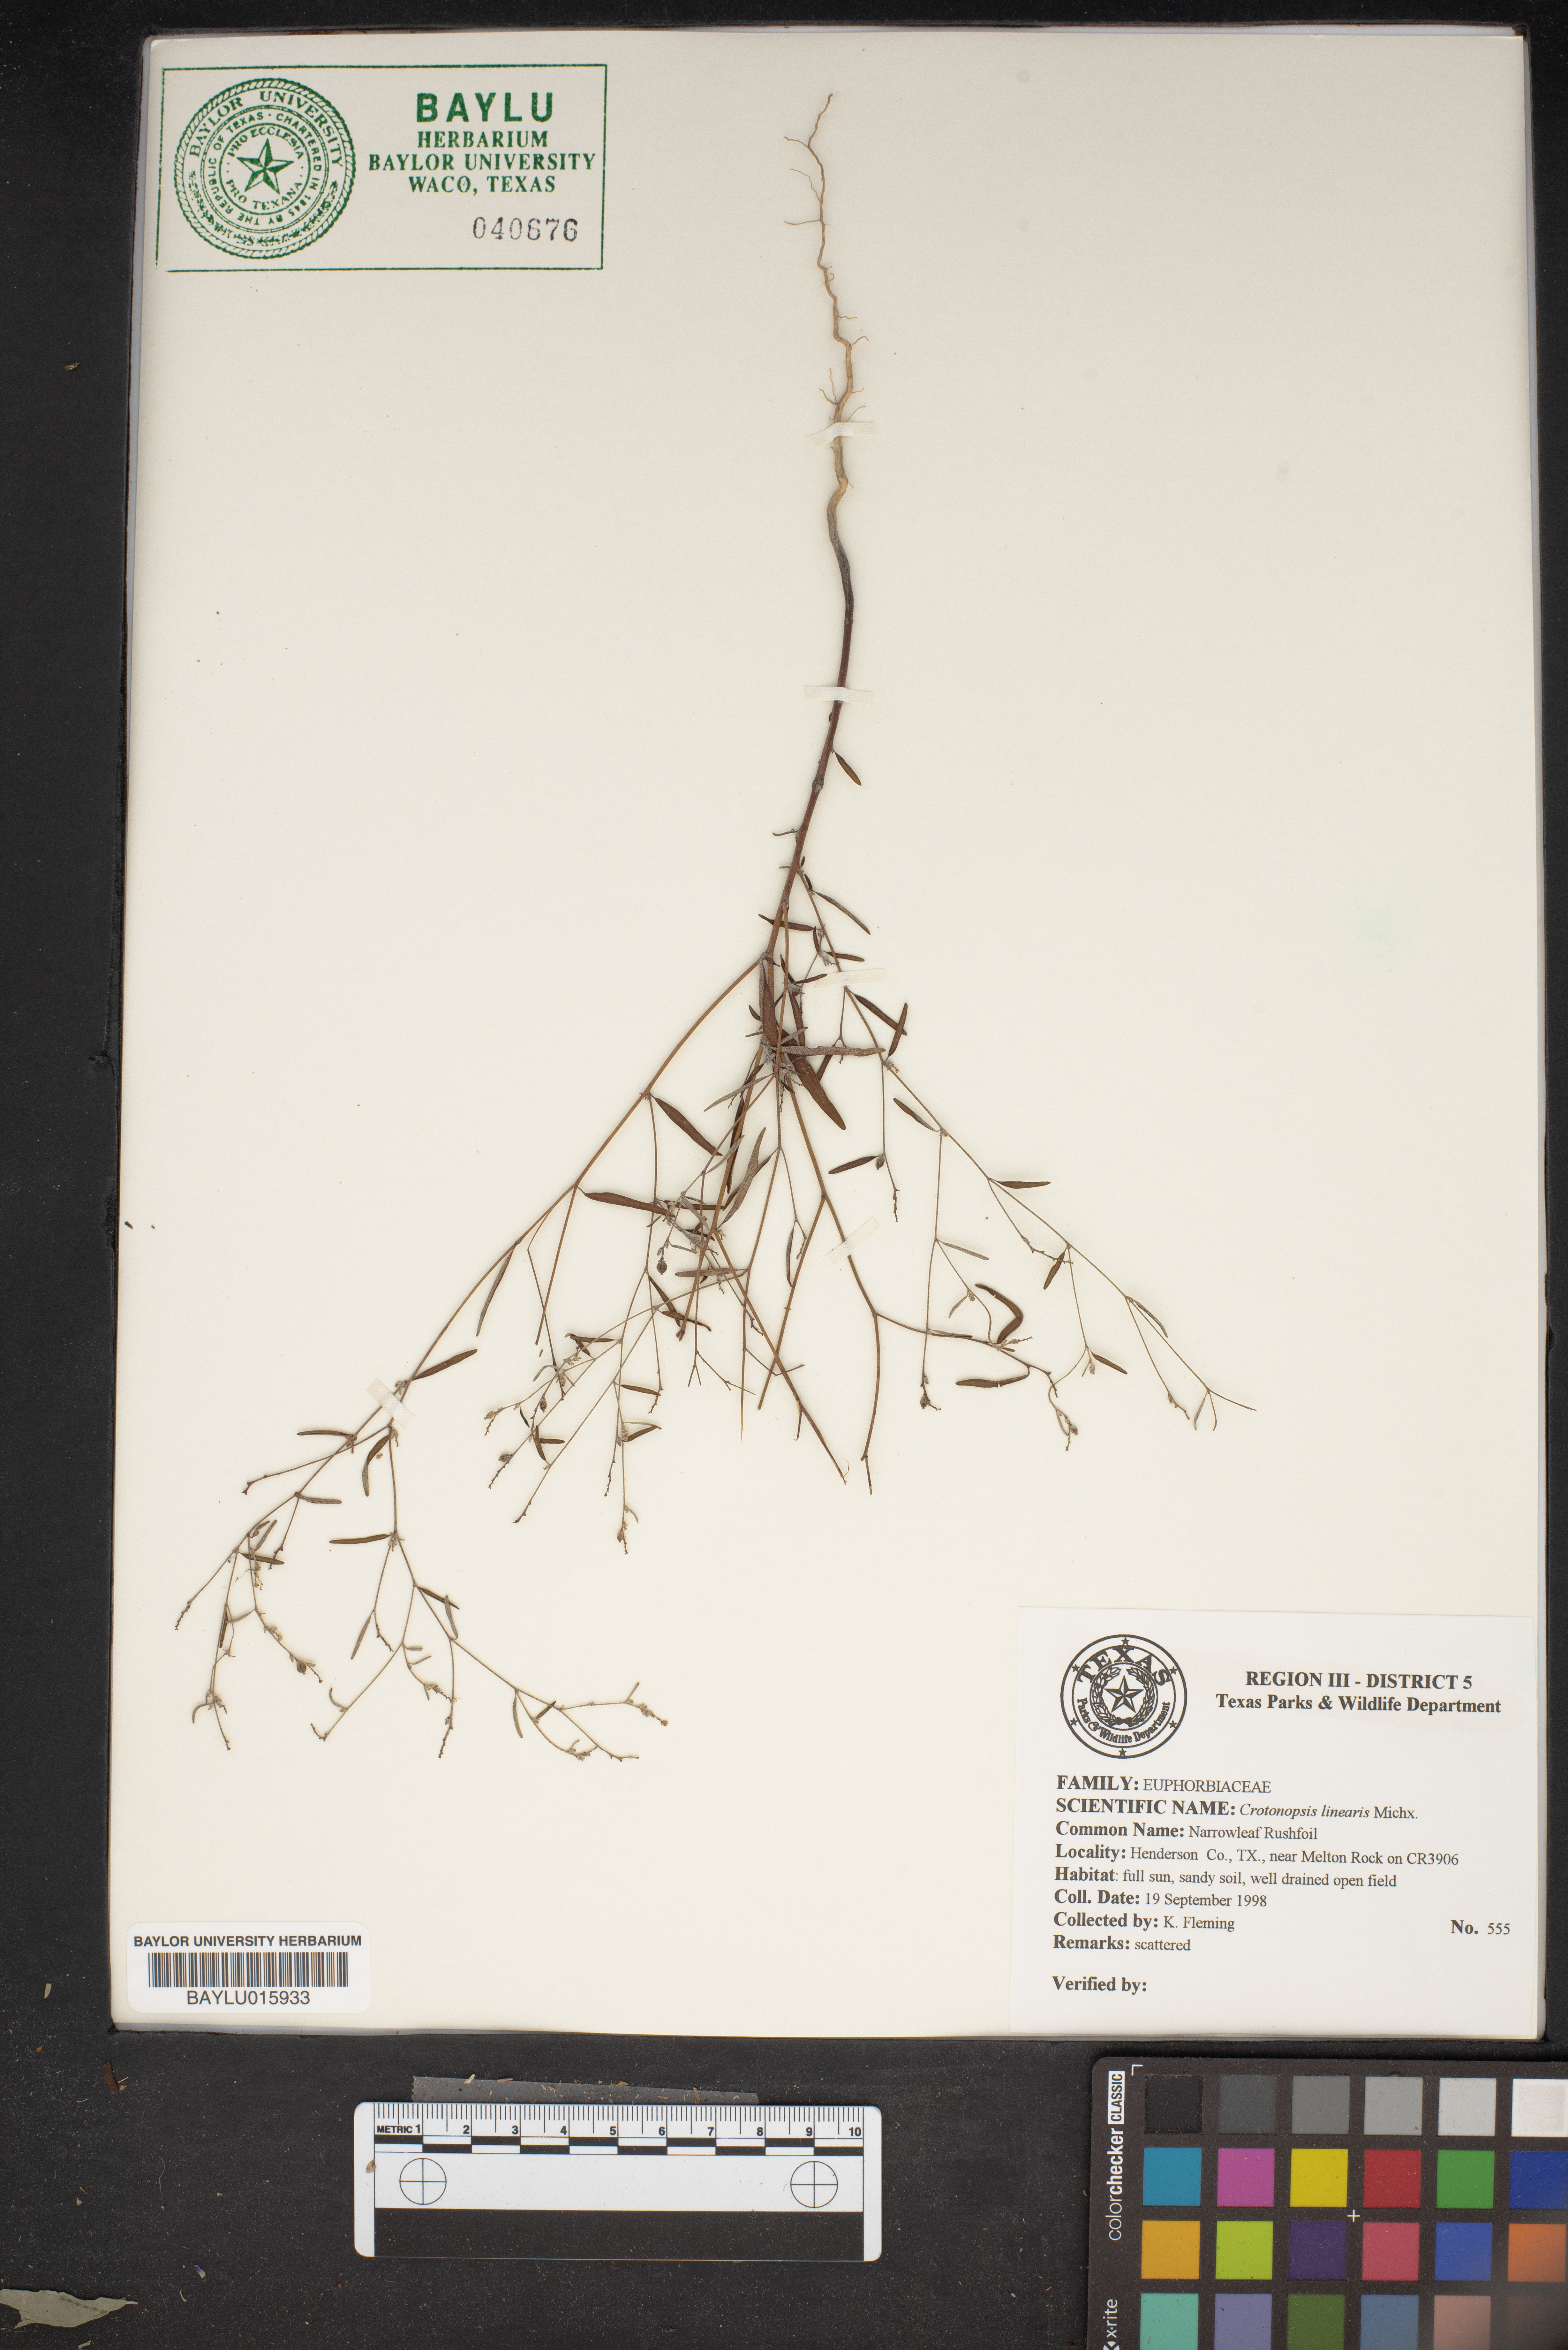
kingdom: Plantae
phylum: Tracheophyta
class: Magnoliopsida
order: Malpighiales
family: Euphorbiaceae
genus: Croton
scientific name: Croton michauxii
